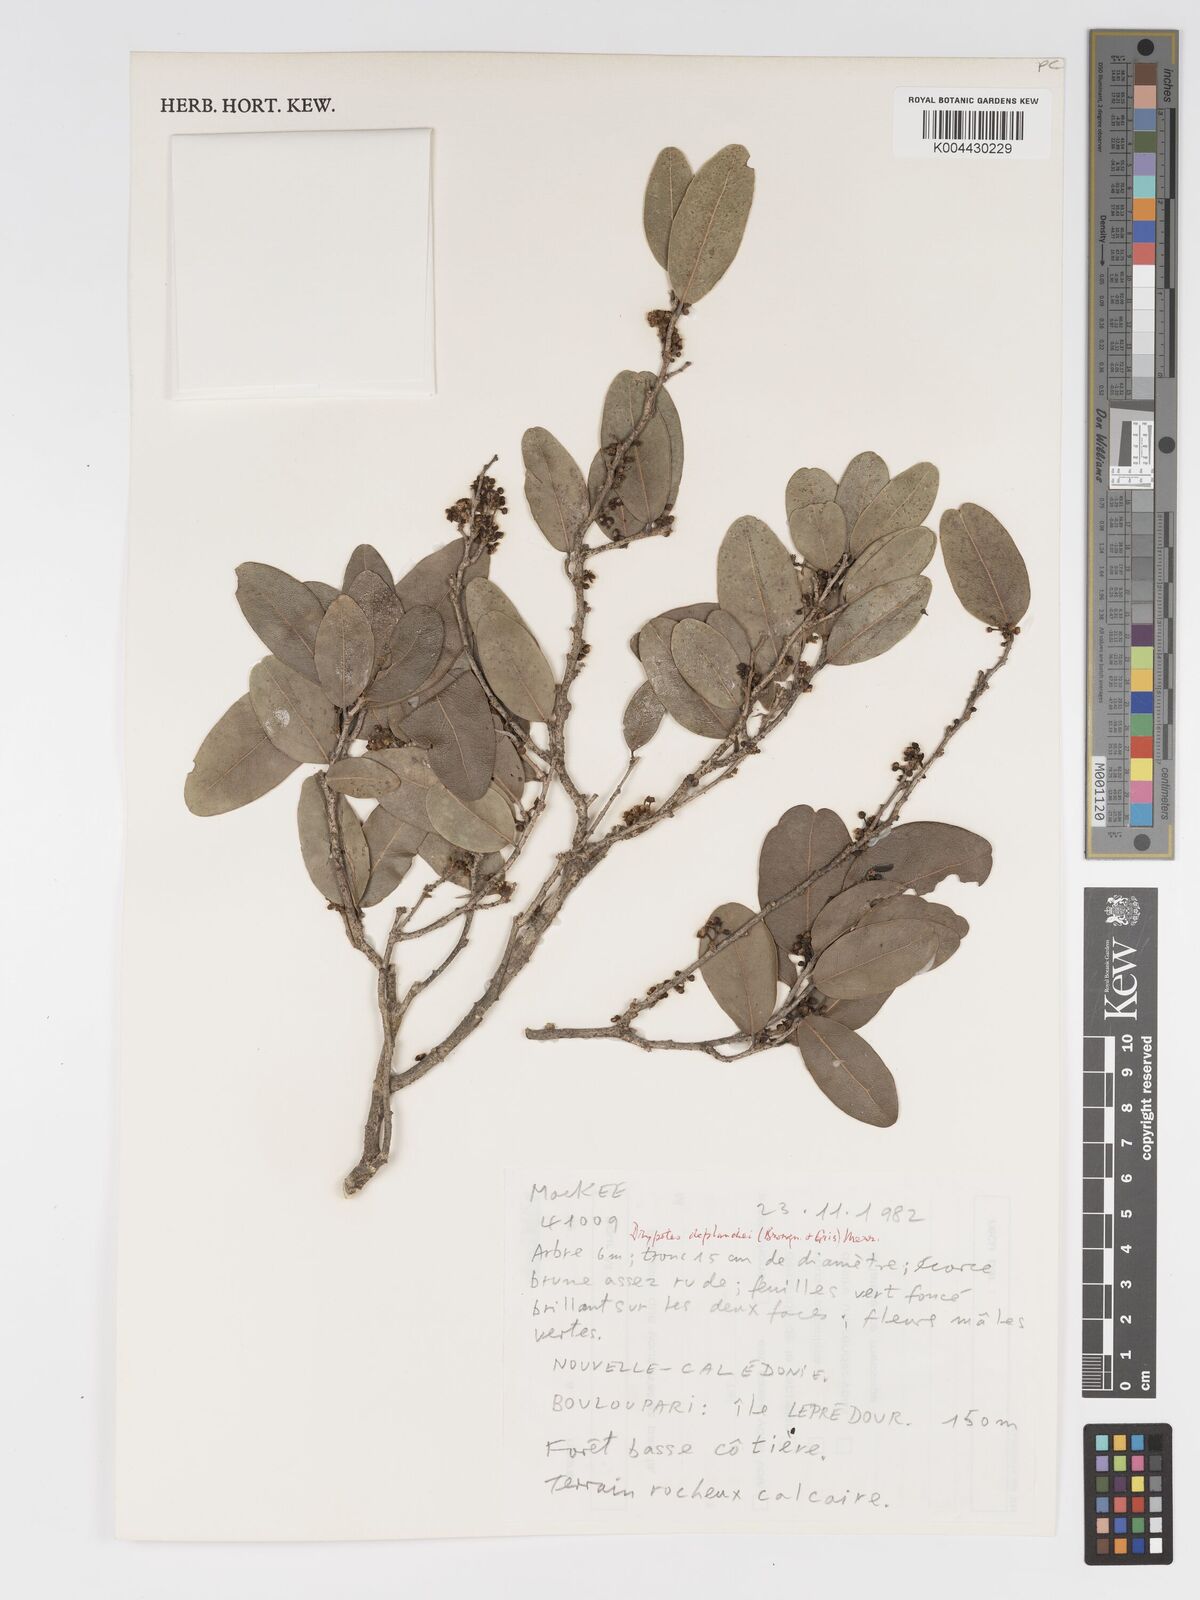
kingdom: Plantae
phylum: Tracheophyta
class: Magnoliopsida
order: Malpighiales
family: Putranjivaceae
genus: Drypetes
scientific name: Drypetes deplanchei
